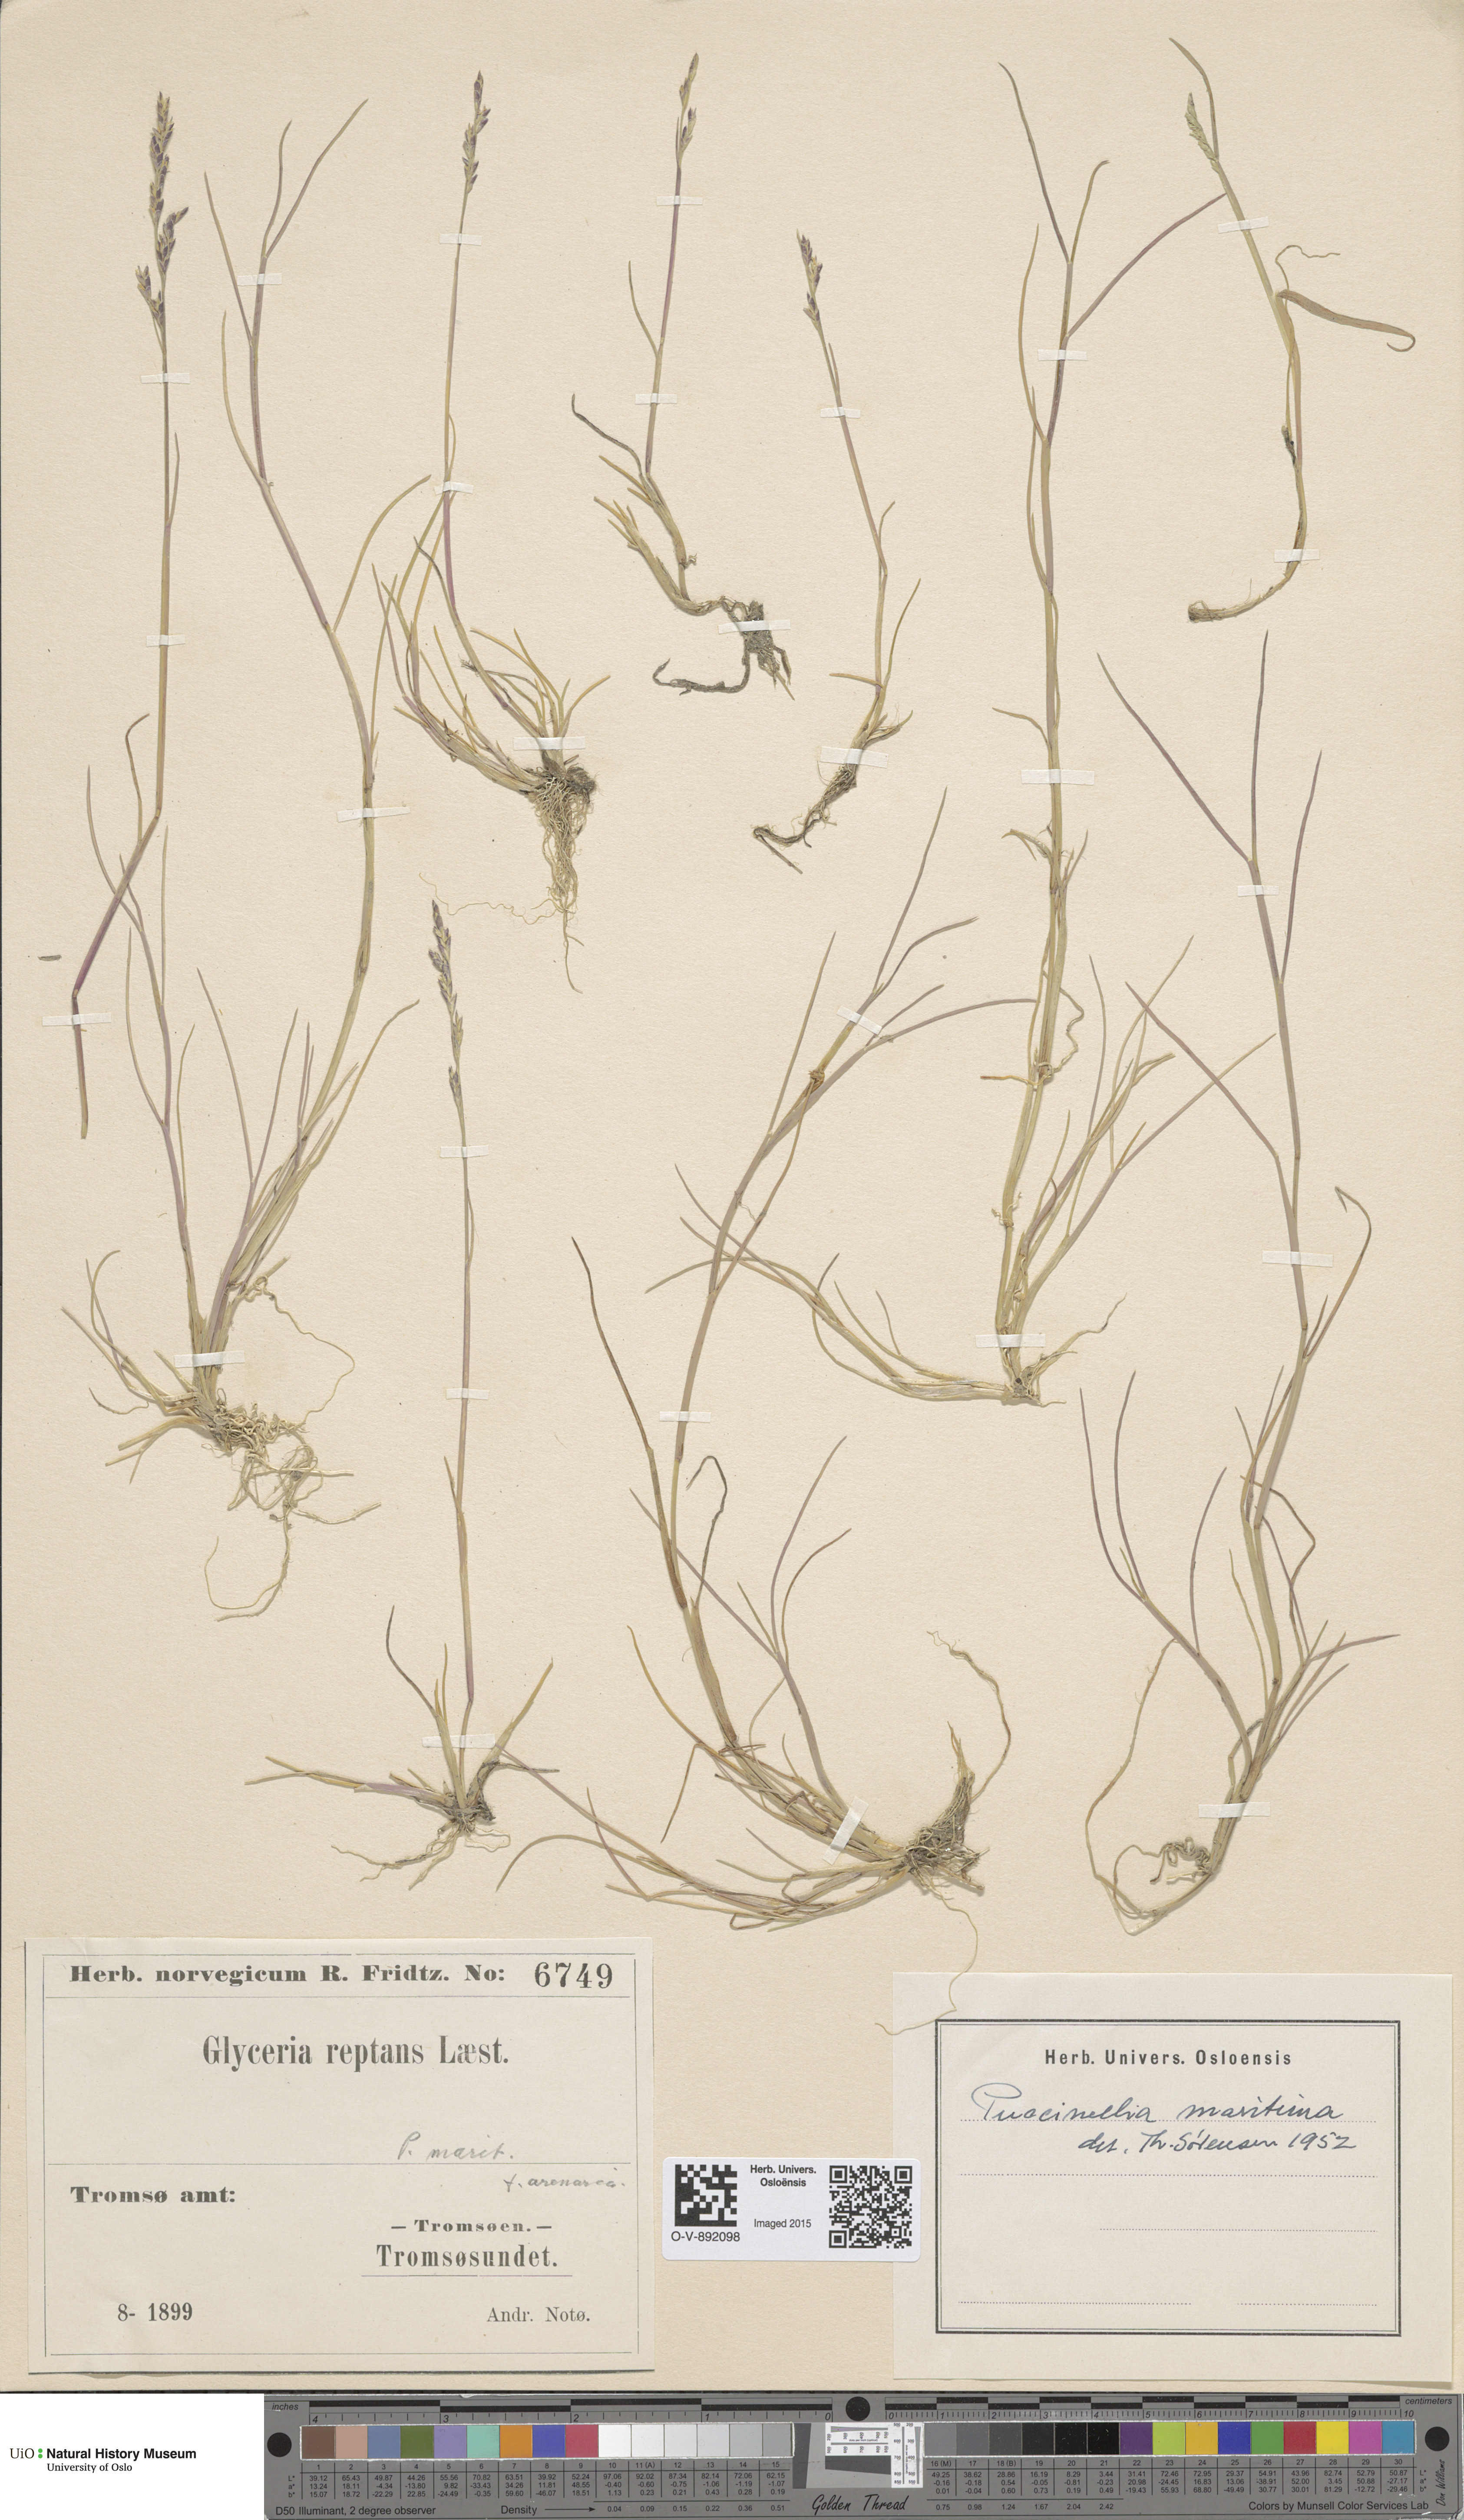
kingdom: Plantae
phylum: Tracheophyta
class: Liliopsida
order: Poales
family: Poaceae
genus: Puccinellia
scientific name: Puccinellia maritima
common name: Common saltmarsh grass
